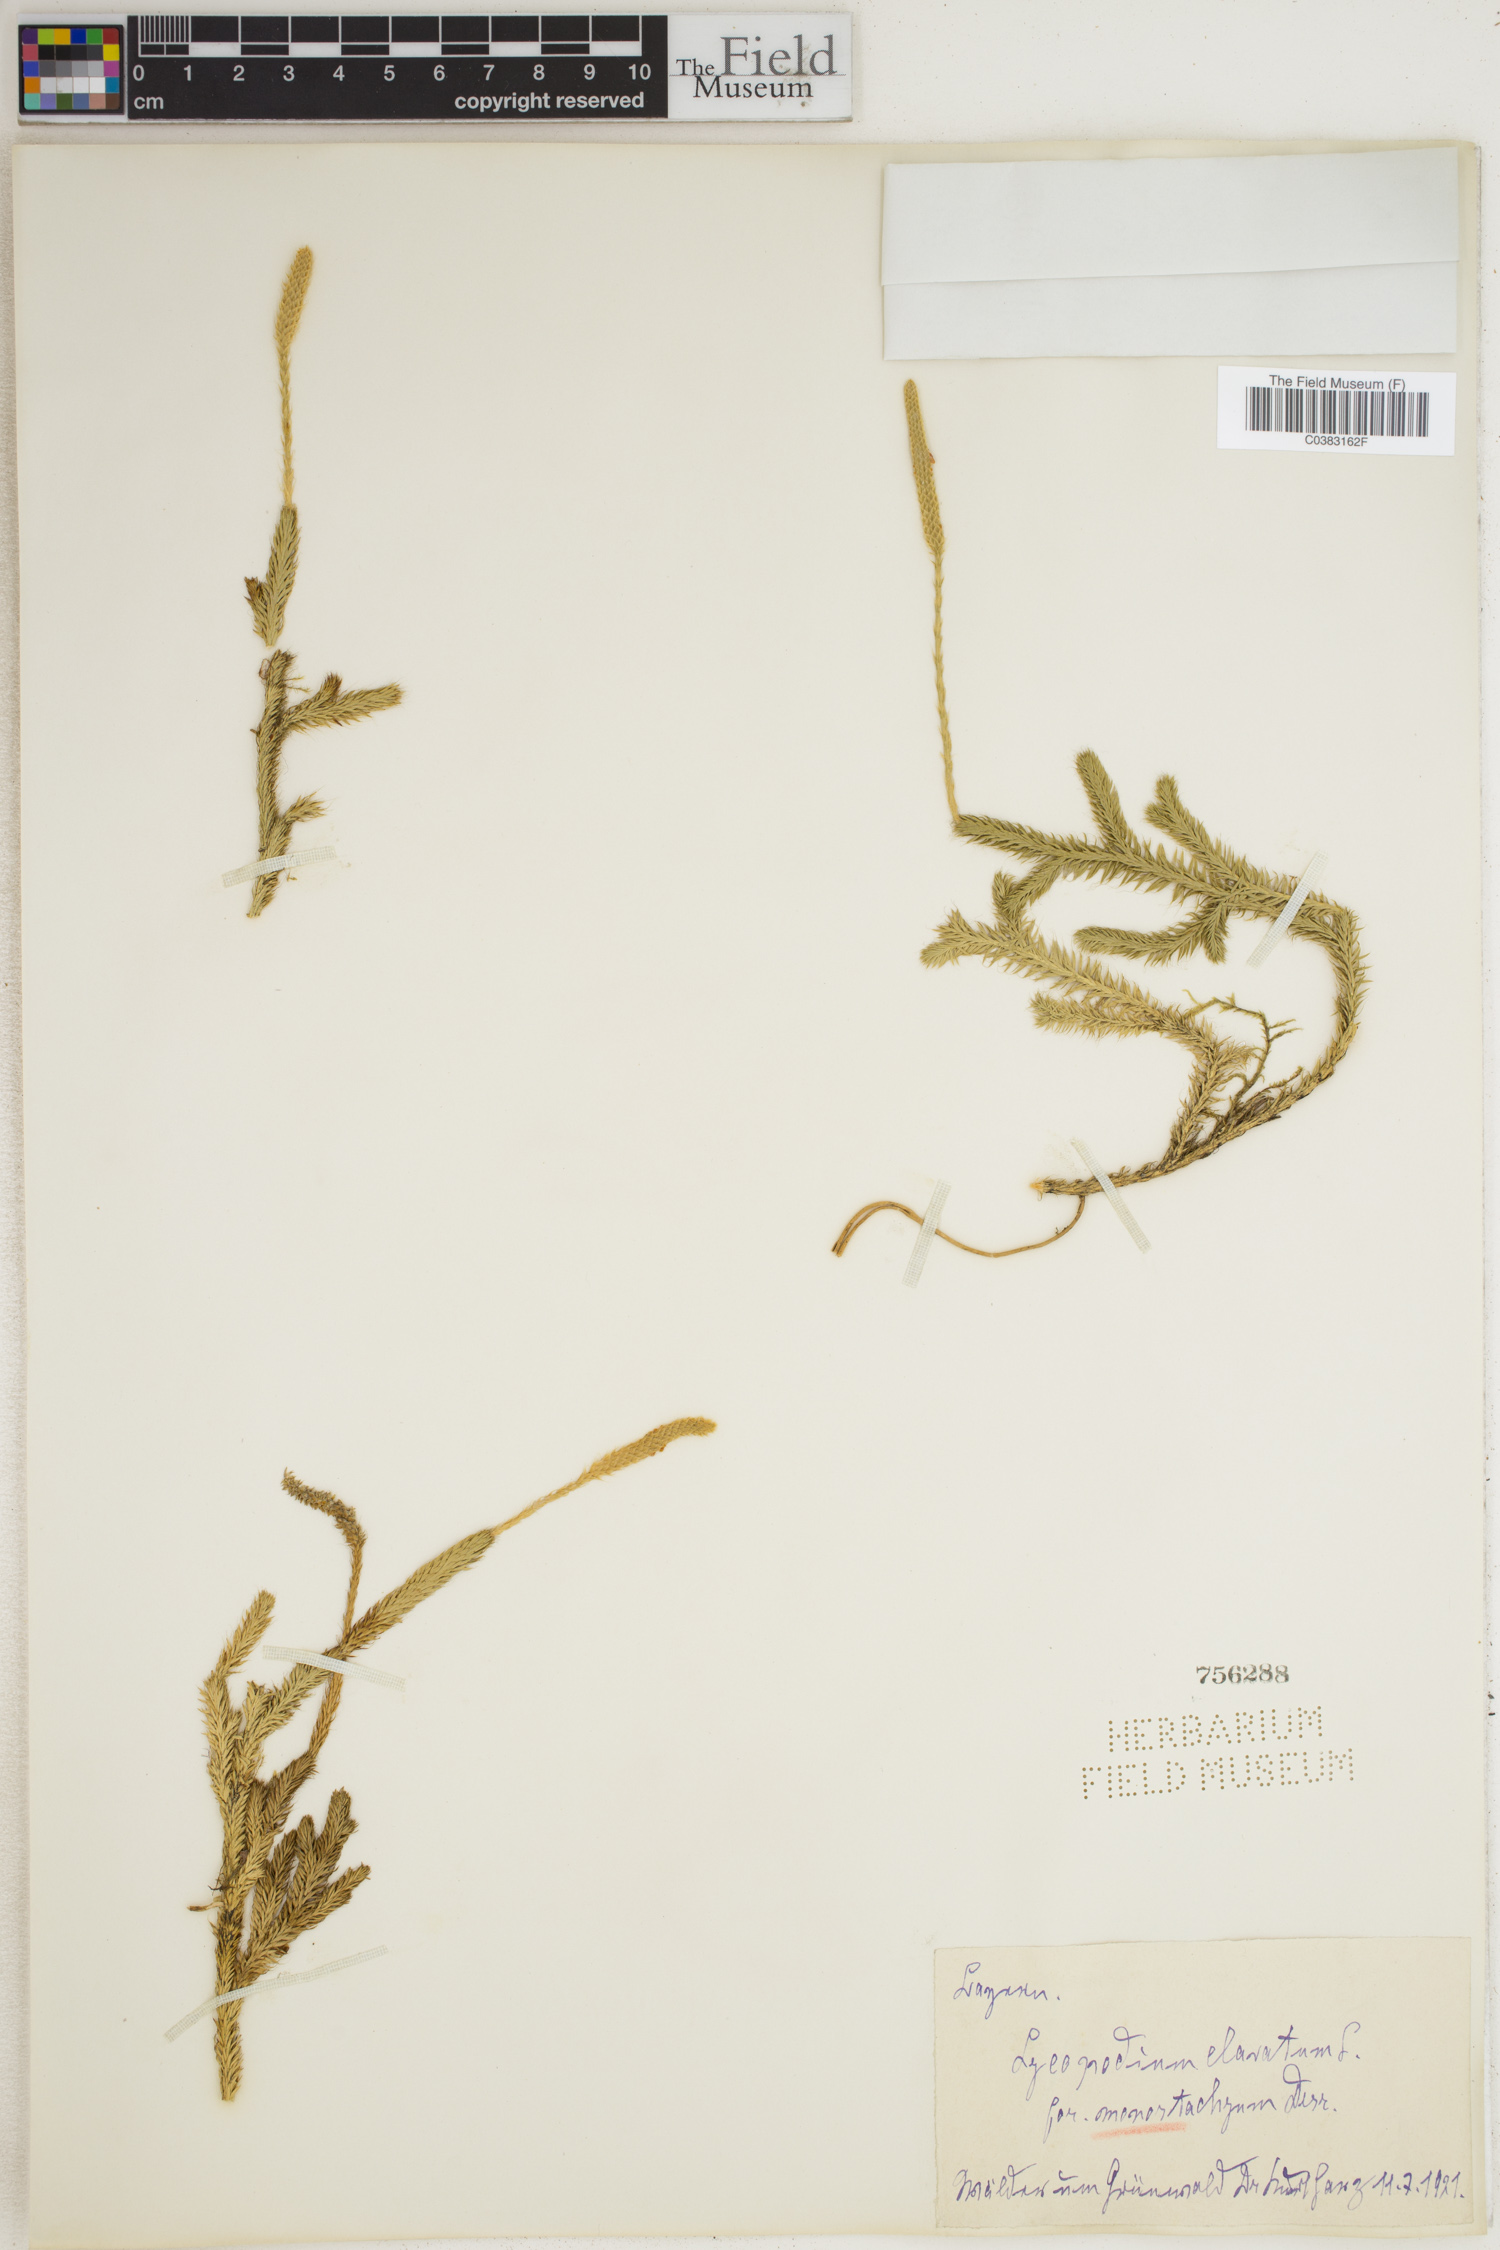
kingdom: Plantae
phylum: Tracheophyta
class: Lycopodiopsida
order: Lycopodiales
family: Lycopodiaceae
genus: Lycopodium
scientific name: Lycopodium clavatum
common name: Stag's-horn clubmoss
